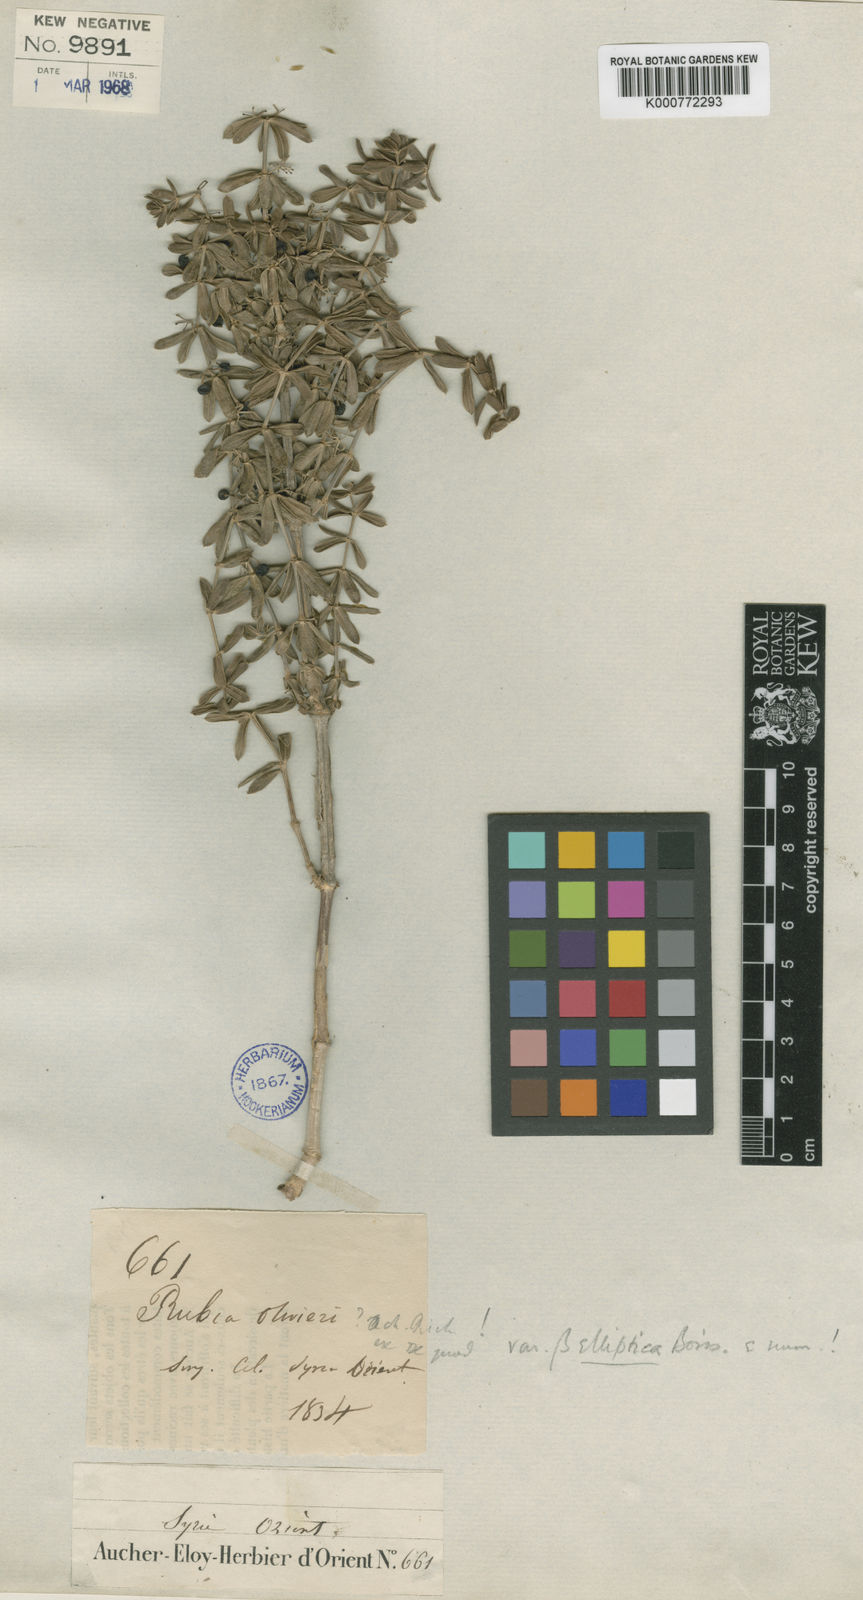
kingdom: Plantae
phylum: Tracheophyta
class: Magnoliopsida
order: Gentianales
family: Rubiaceae
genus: Rubia
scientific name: Rubia tenuifolia
